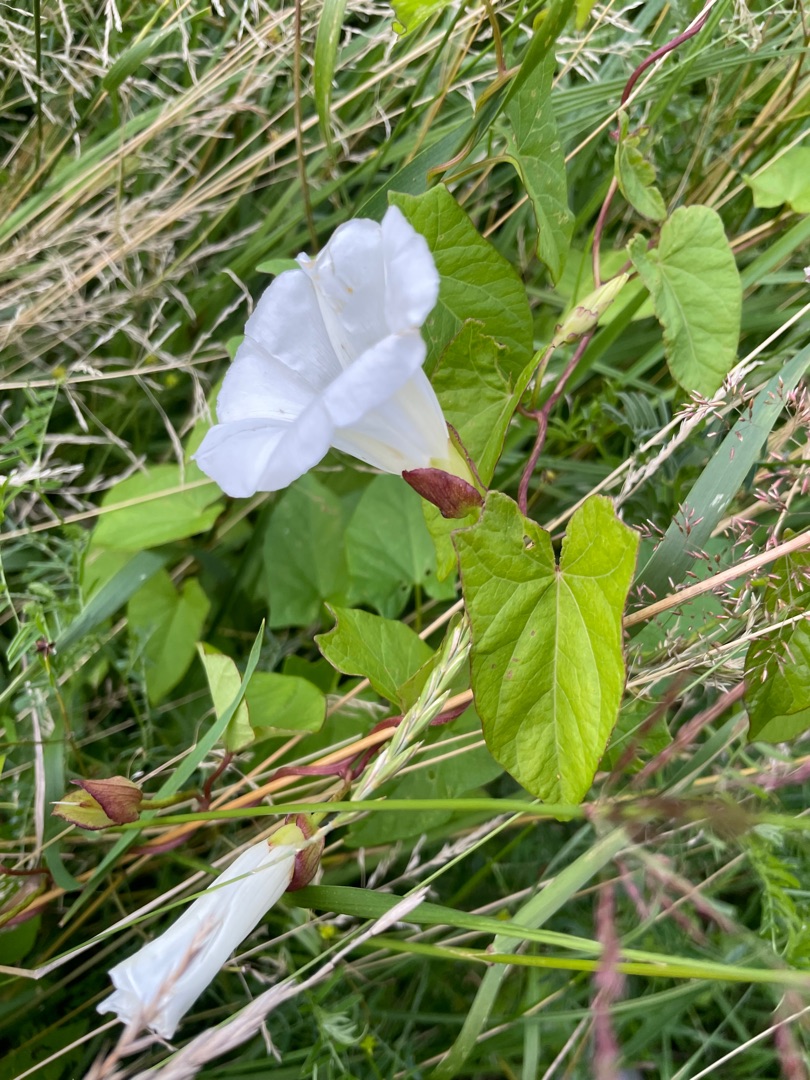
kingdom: Plantae
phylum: Tracheophyta
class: Magnoliopsida
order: Solanales
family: Convolvulaceae
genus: Calystegia
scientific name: Calystegia sepium
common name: Gærde-snerle
